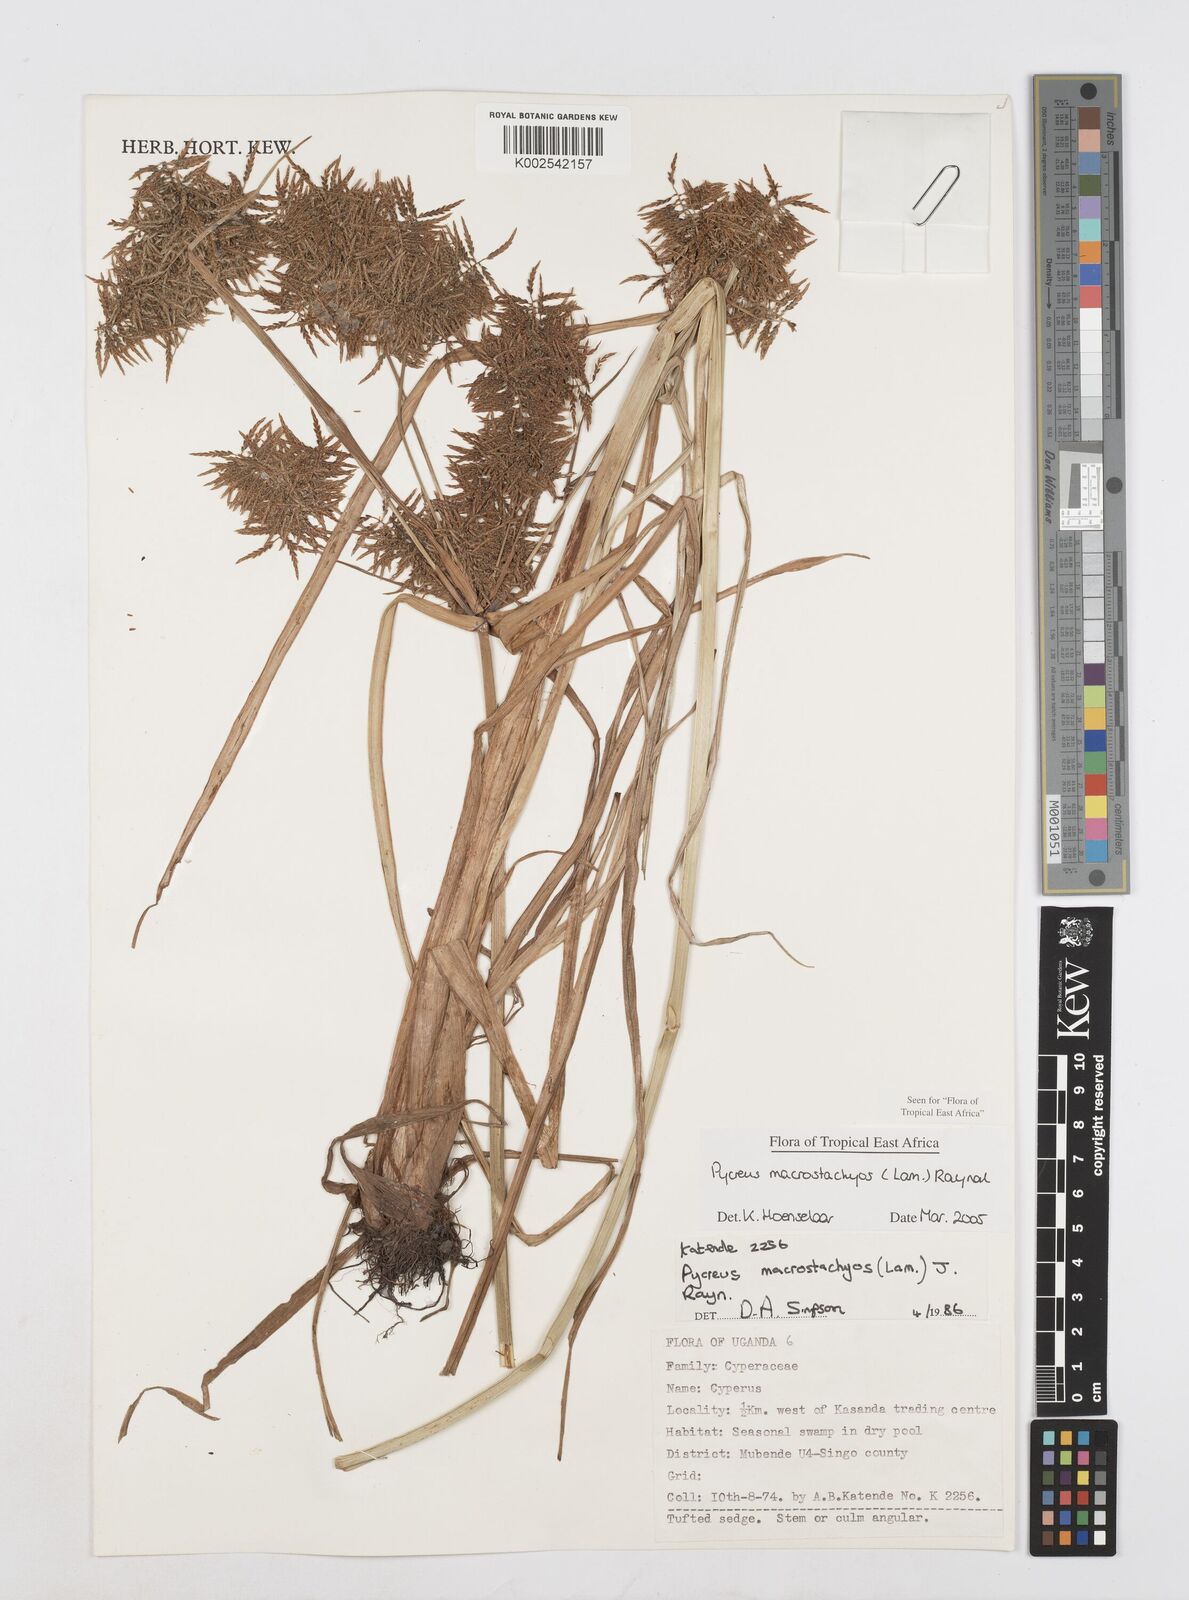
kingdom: Plantae
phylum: Tracheophyta
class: Liliopsida
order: Poales
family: Cyperaceae
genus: Cyperus
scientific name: Cyperus macrostachyos
